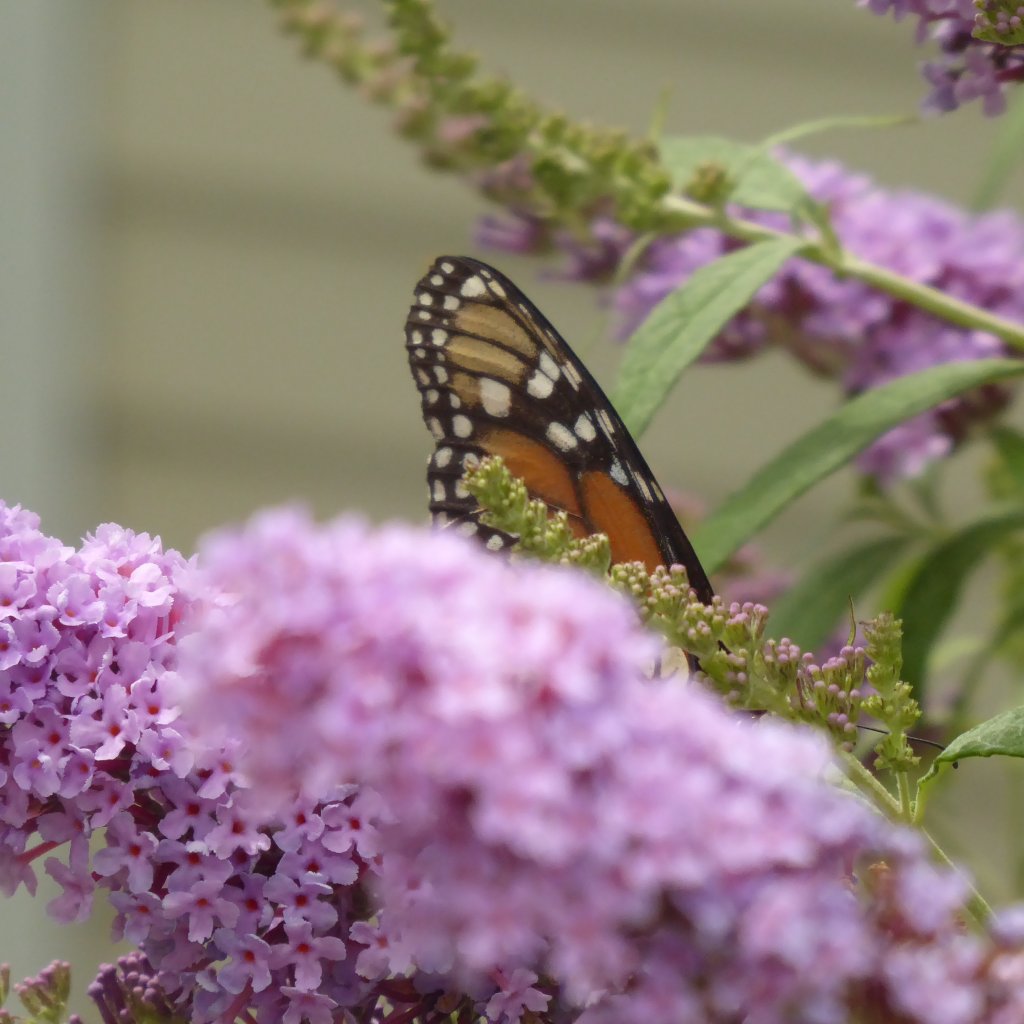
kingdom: Animalia
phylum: Arthropoda
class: Insecta
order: Lepidoptera
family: Nymphalidae
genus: Danaus
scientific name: Danaus plexippus
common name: Monarch
